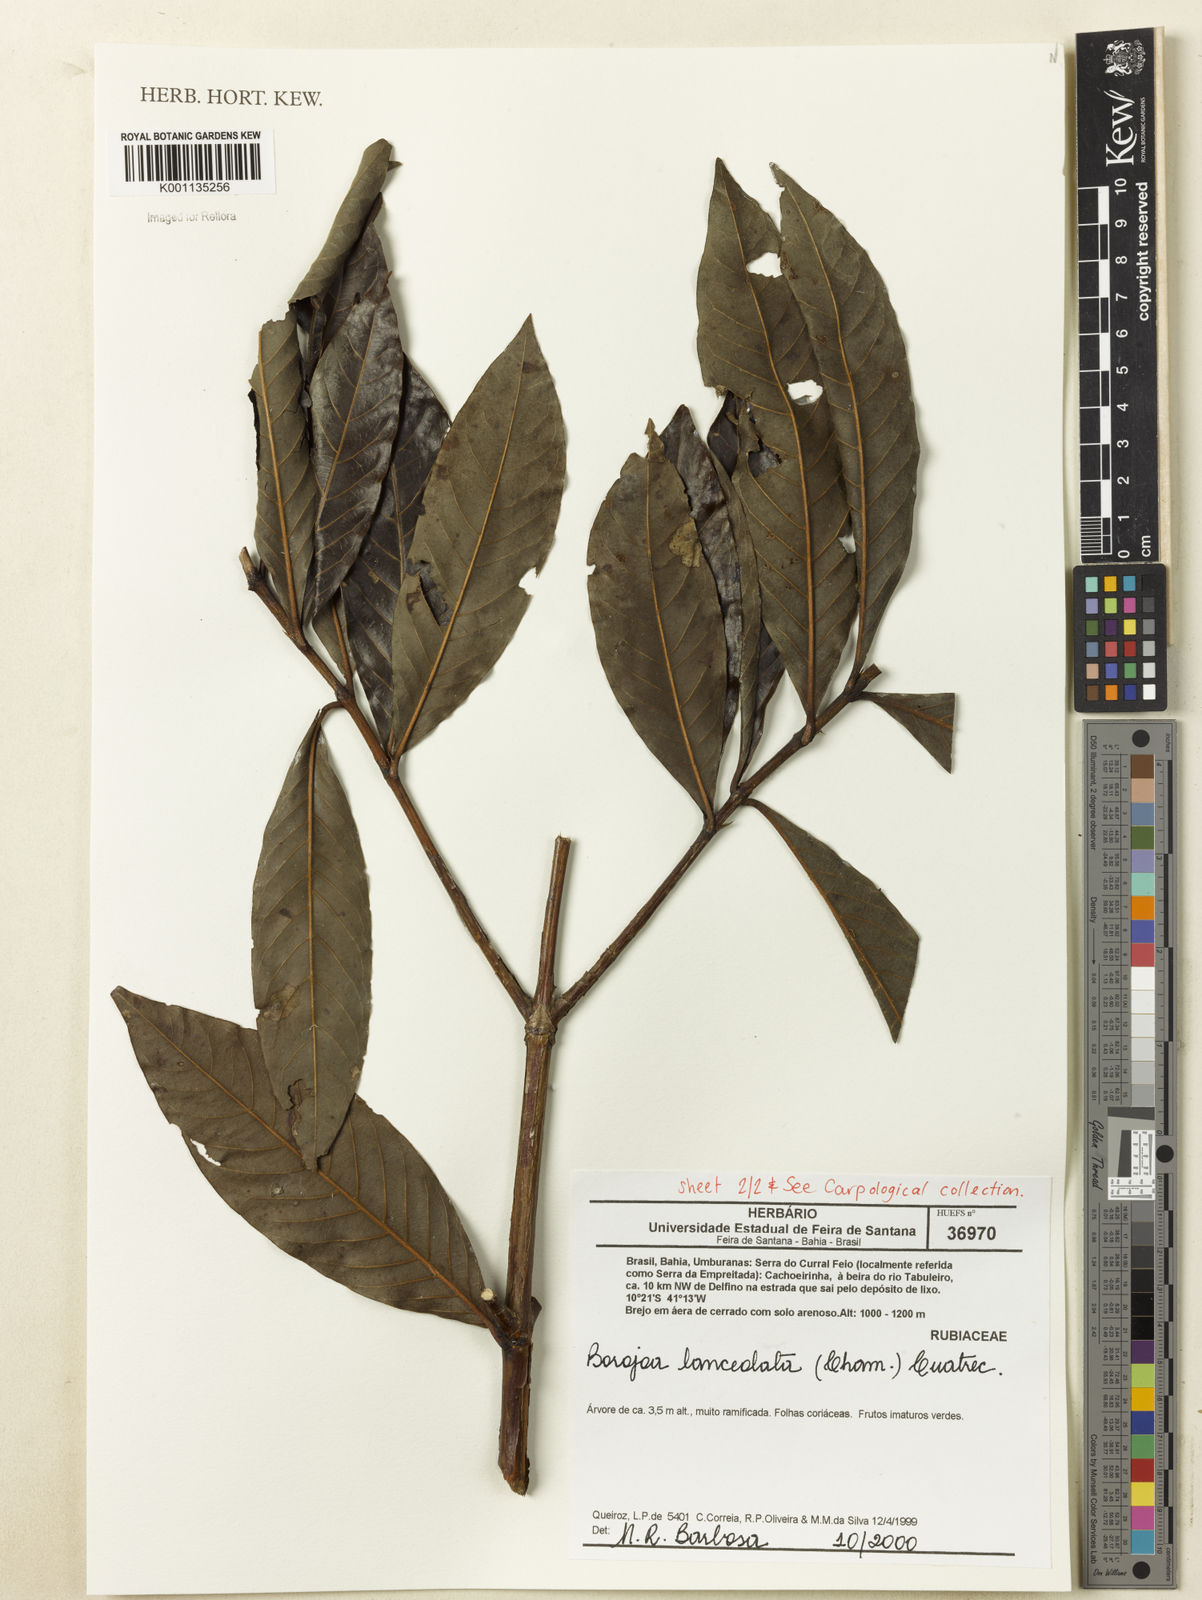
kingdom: Plantae
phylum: Tracheophyta
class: Magnoliopsida
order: Gentianales
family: Rubiaceae
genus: Alibertia
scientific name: Alibertia edulis
